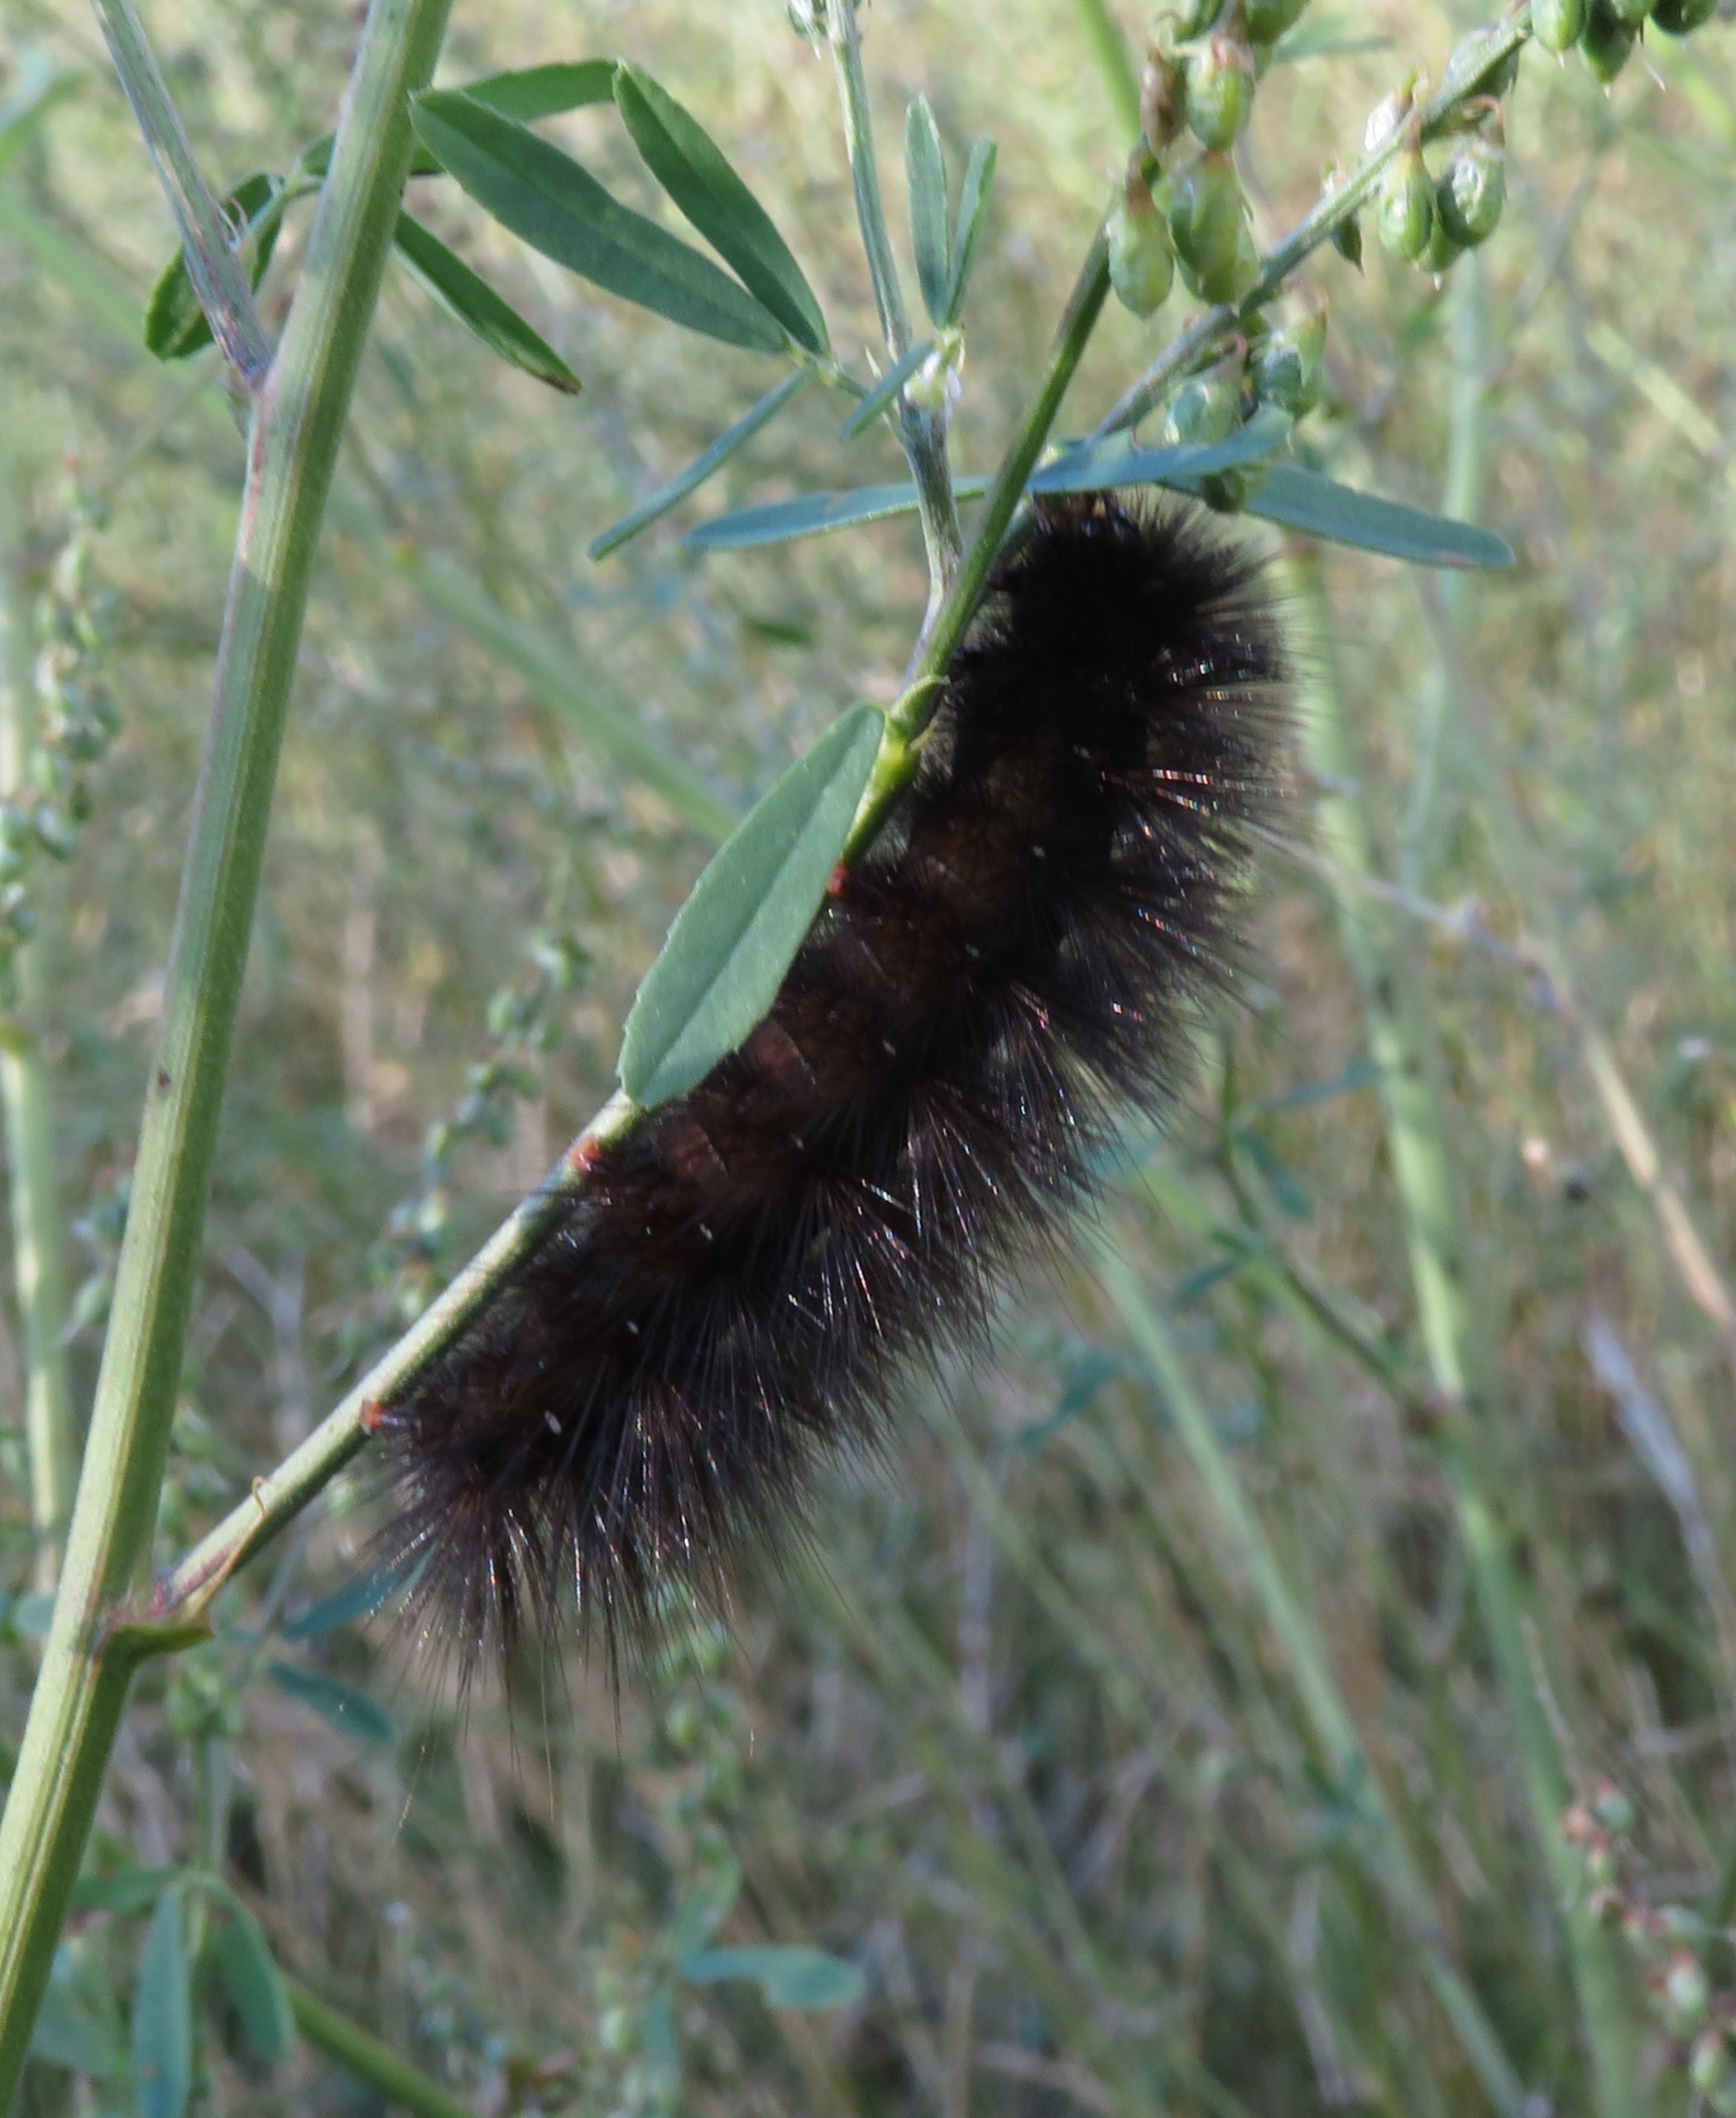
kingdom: Animalia
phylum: Arthropoda
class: Insecta
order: Lepidoptera
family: Erebidae
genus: Arctia
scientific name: Arctia caja
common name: Brun bjørn
